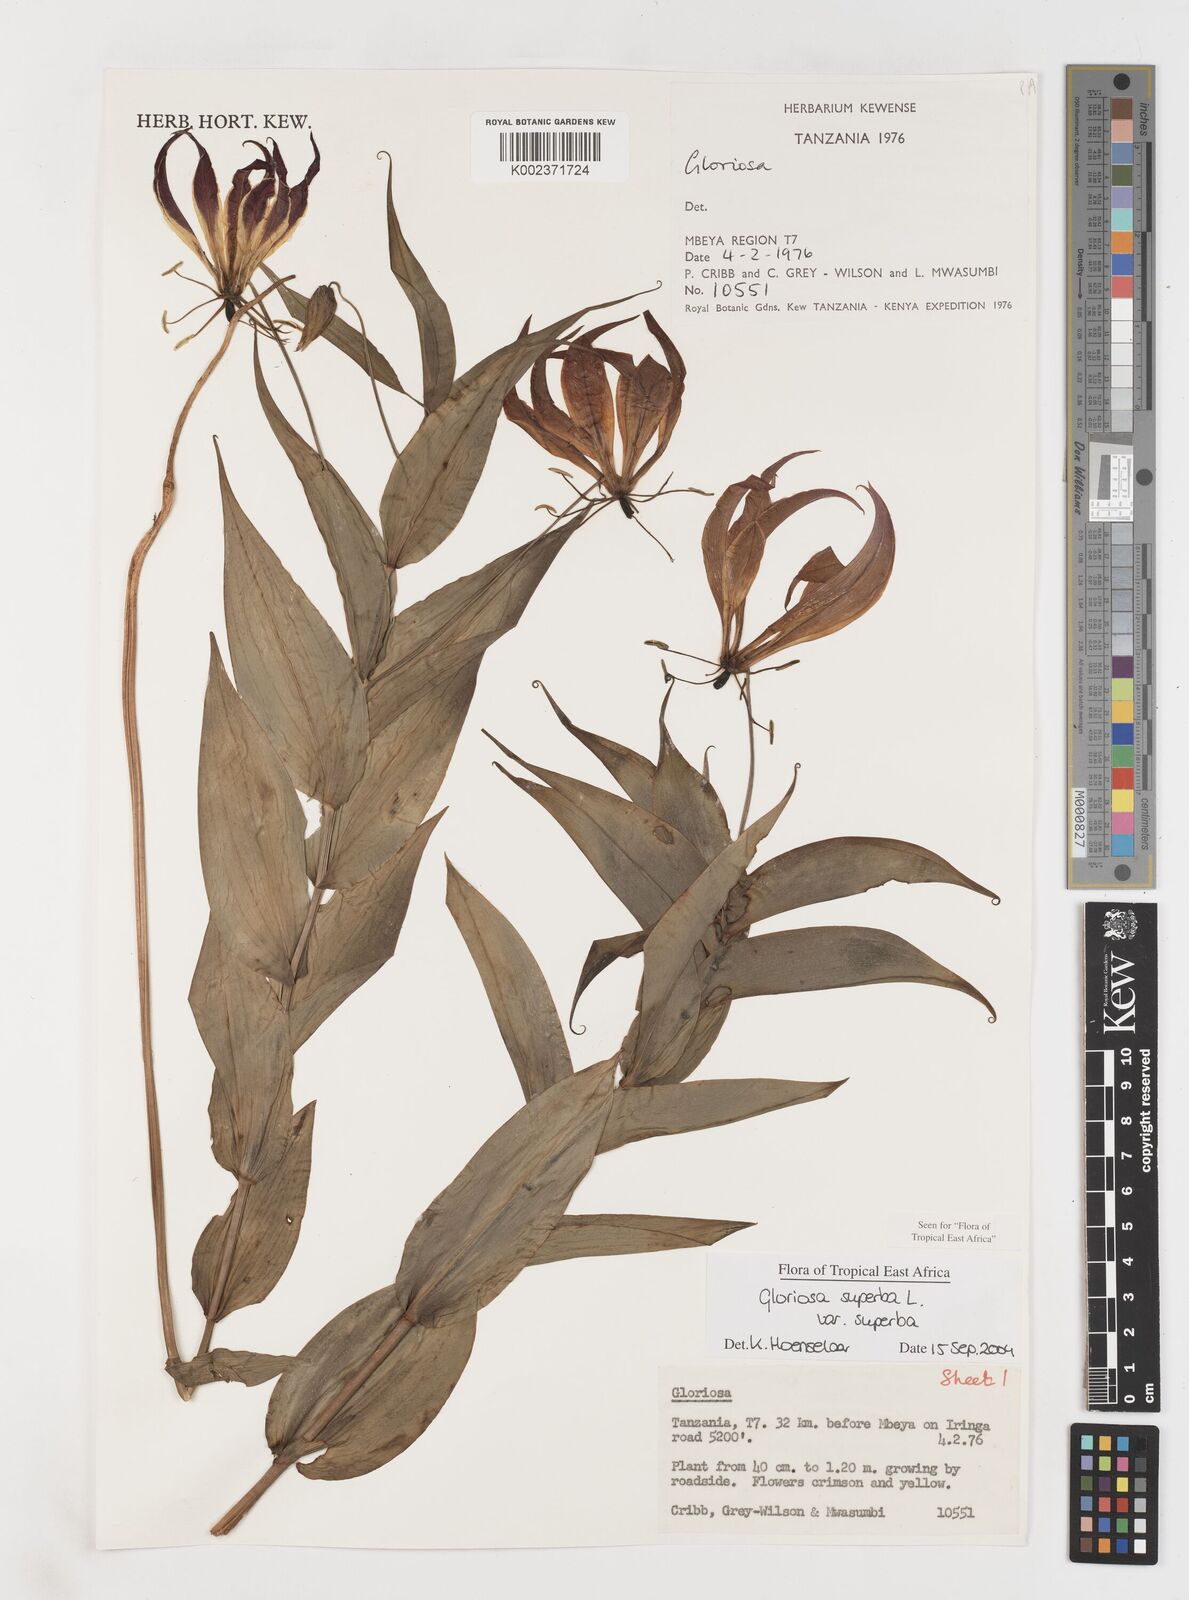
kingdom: Plantae
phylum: Tracheophyta
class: Liliopsida
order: Liliales
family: Colchicaceae
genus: Gloriosa
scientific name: Gloriosa simplex
